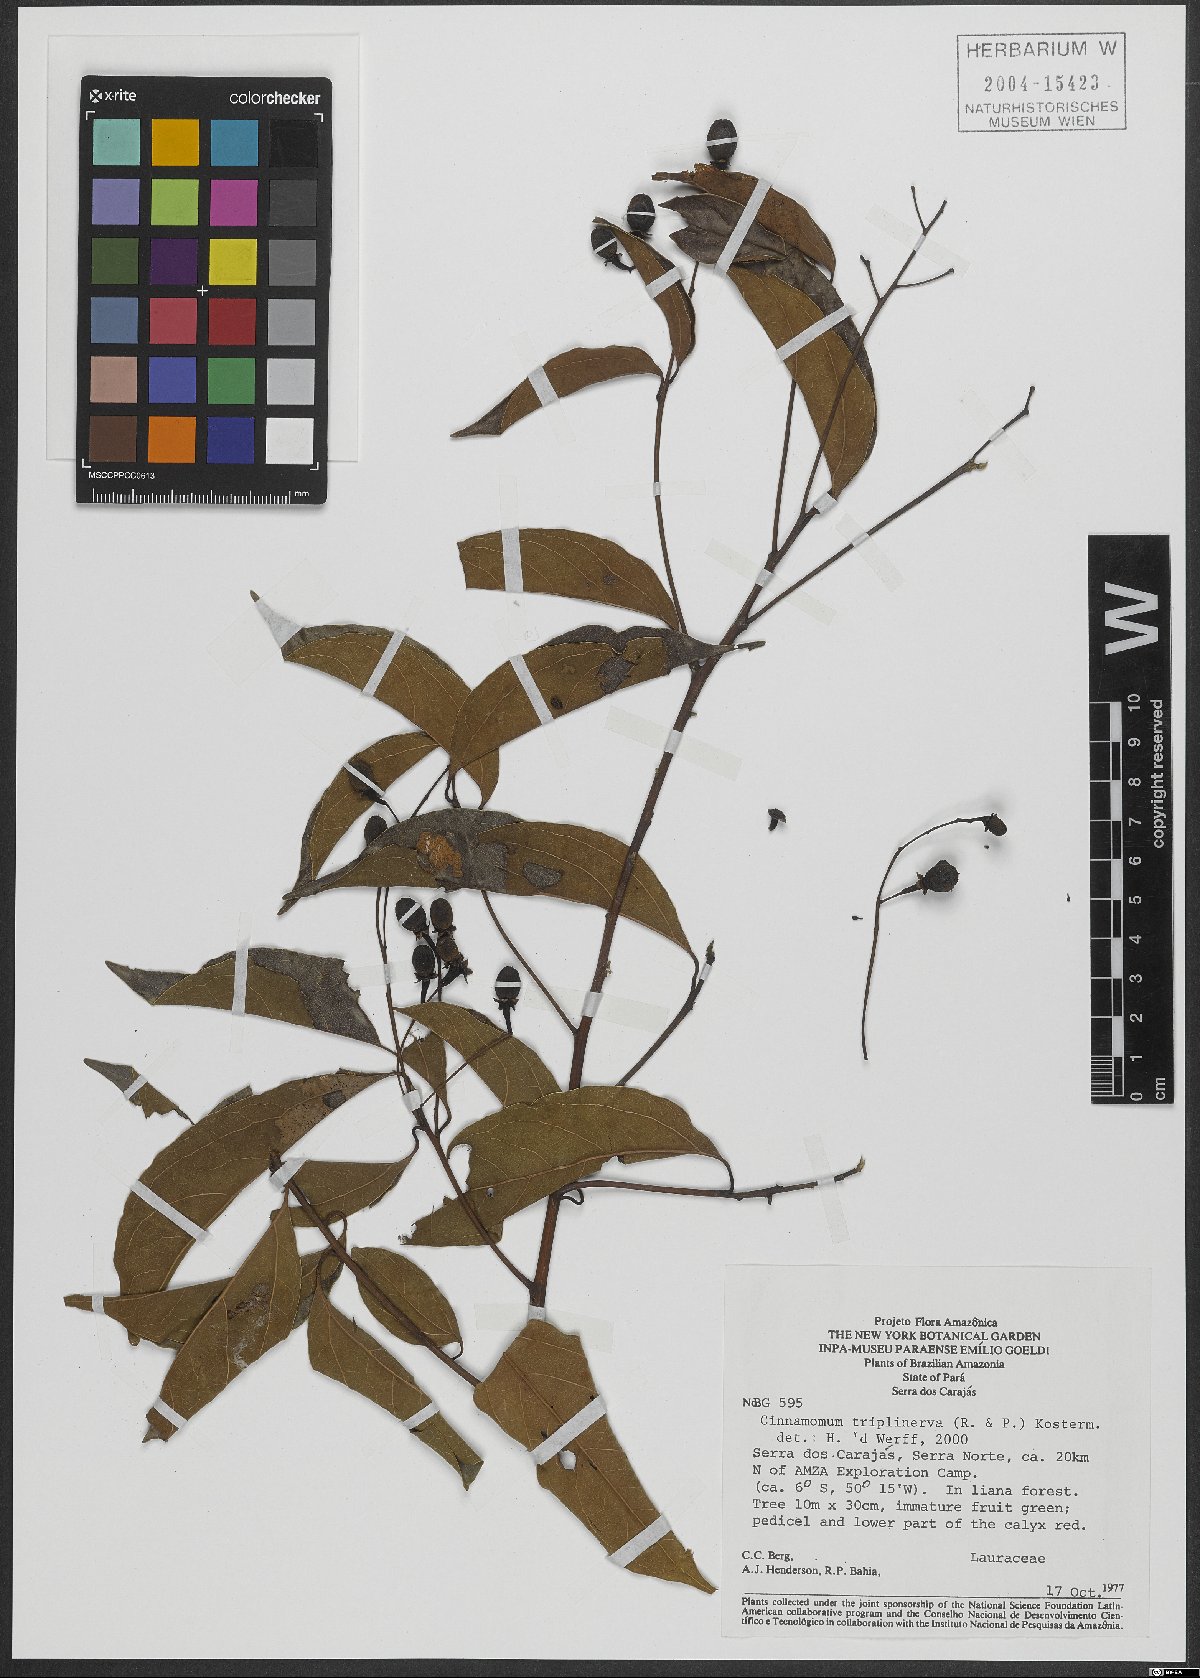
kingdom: Plantae
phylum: Tracheophyta
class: Magnoliopsida
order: Laurales
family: Lauraceae
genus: Aiouea
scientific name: Aiouea montana
